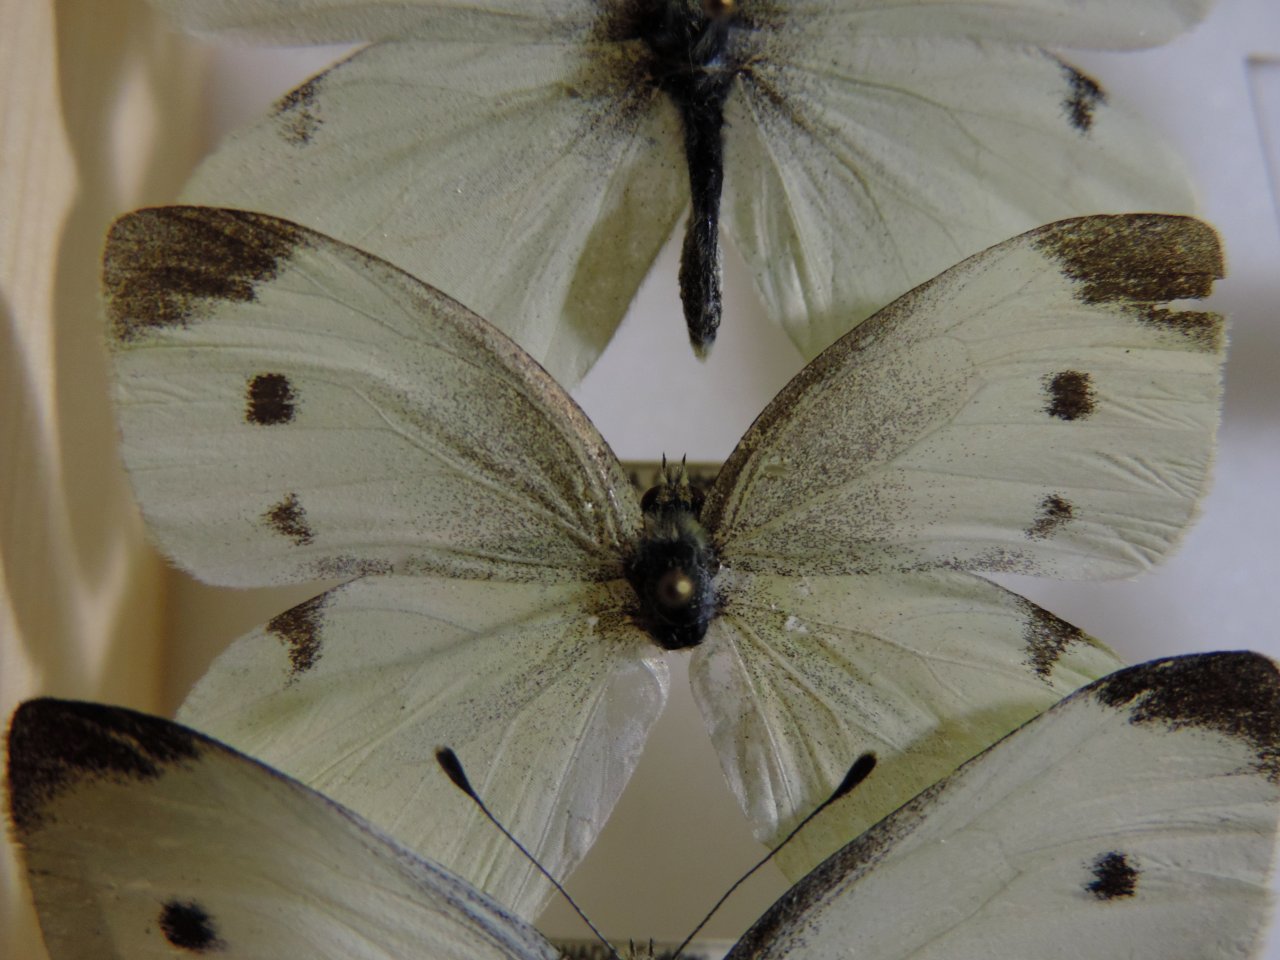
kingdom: Animalia
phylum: Arthropoda
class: Insecta
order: Lepidoptera
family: Pieridae
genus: Pieris
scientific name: Pieris rapae
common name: Cabbage White
